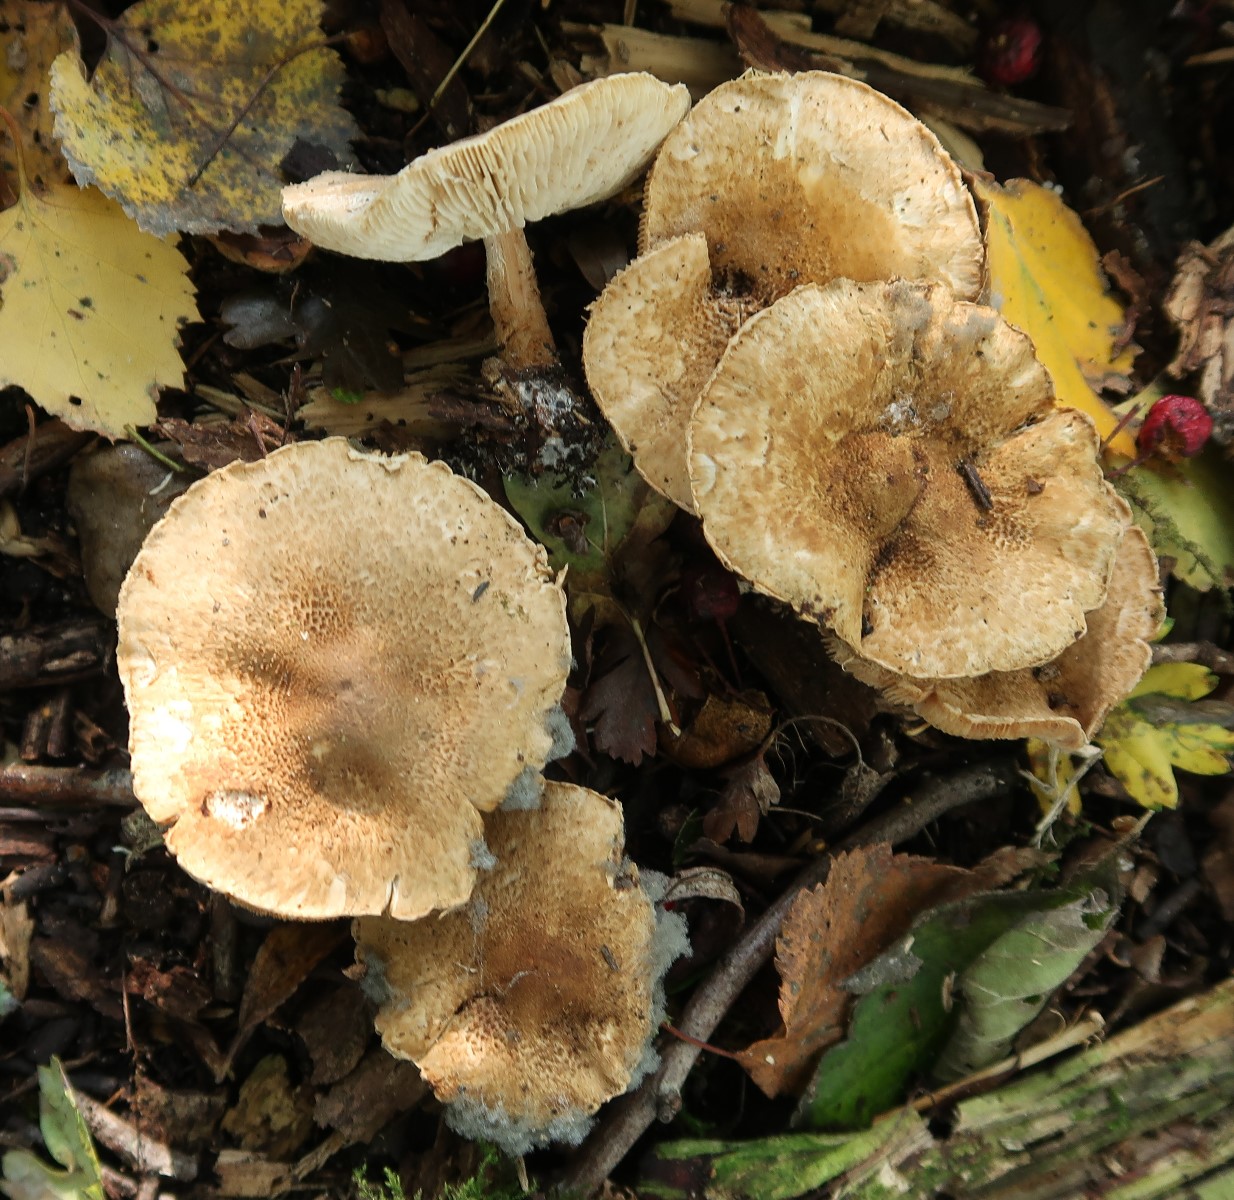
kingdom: Fungi
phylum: Basidiomycota
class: Agaricomycetes
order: Agaricales
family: Agaricaceae
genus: Leucocoprinus
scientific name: Leucocoprinus straminellus
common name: rustbrun parasolhat
